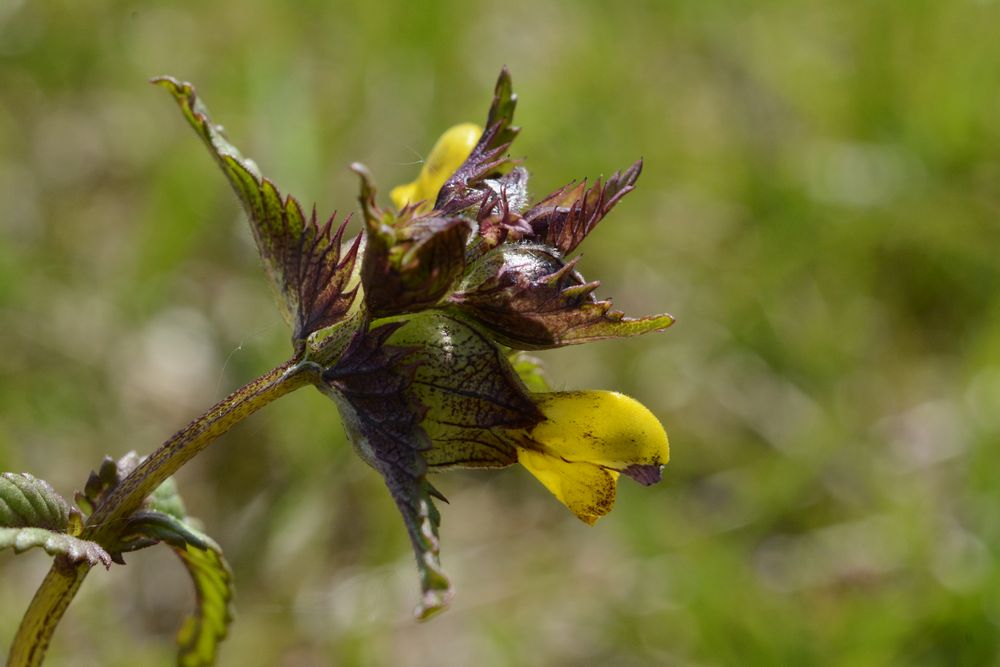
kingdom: Plantae
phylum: Tracheophyta
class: Magnoliopsida
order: Lamiales
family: Orobanchaceae
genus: Rhinanthus
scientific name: Rhinanthus minor
